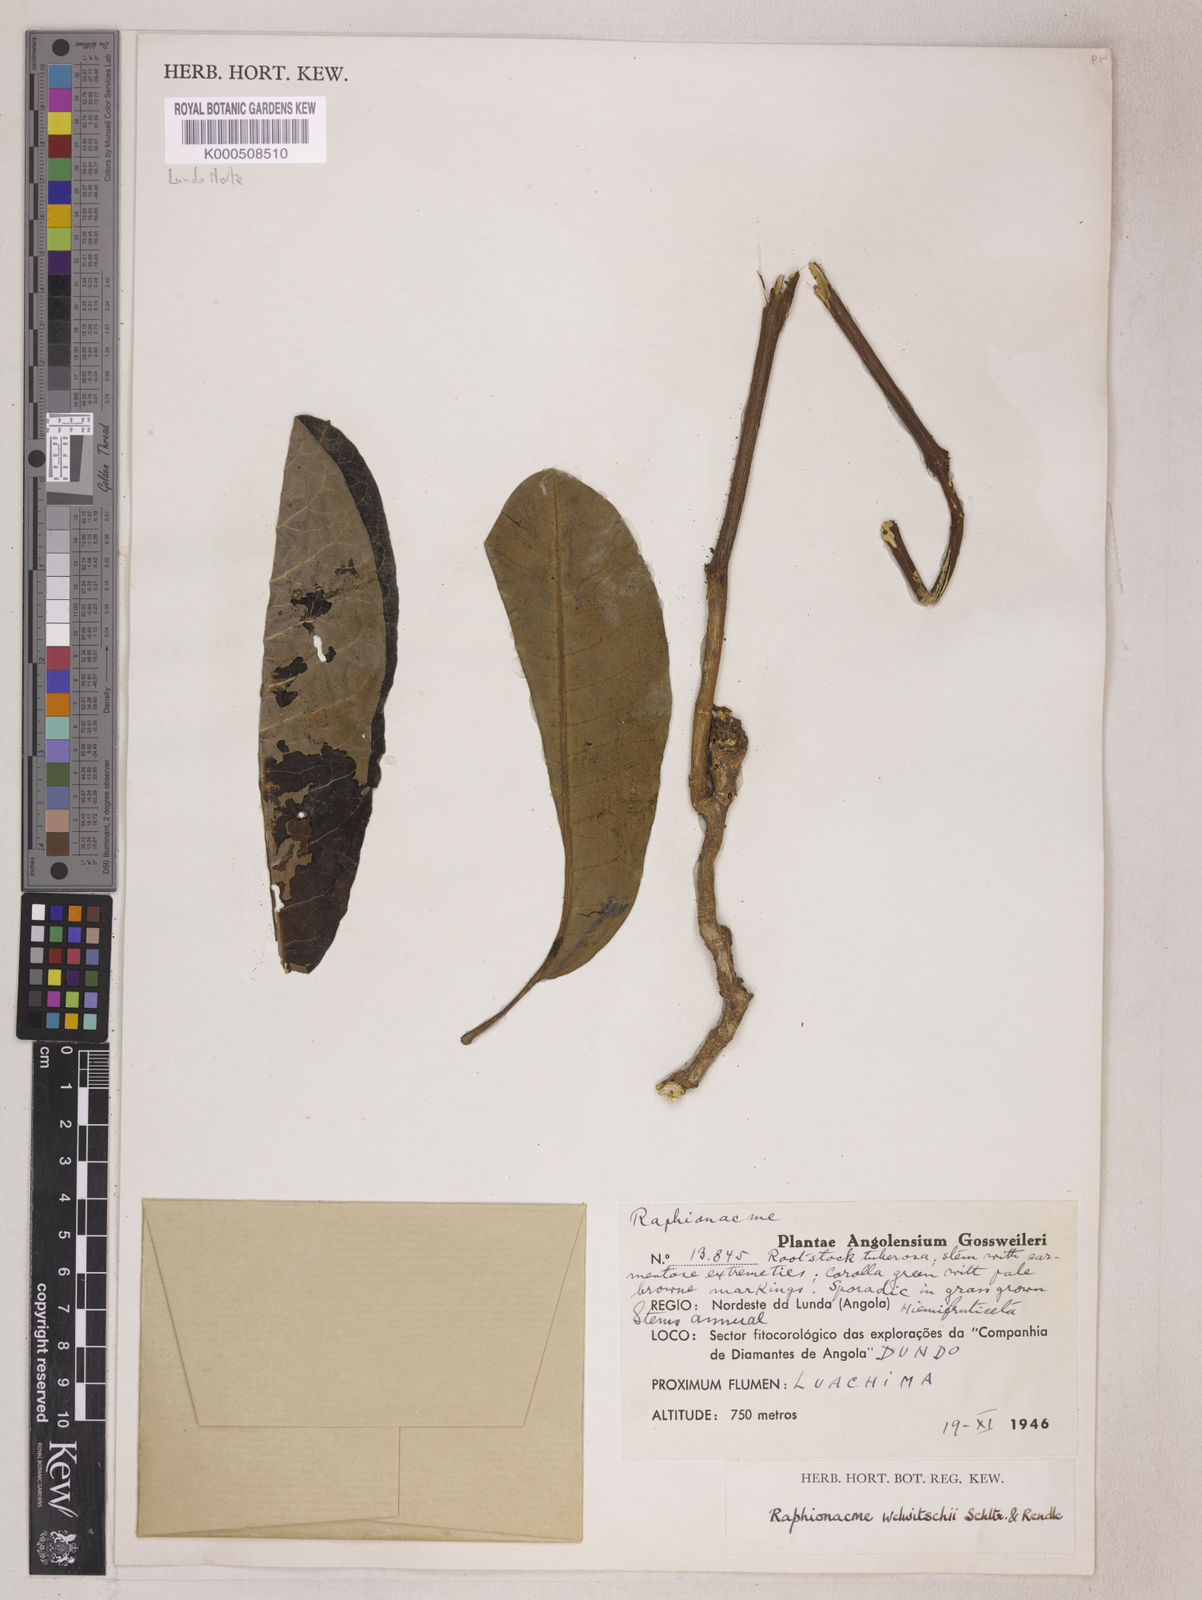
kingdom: Plantae
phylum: Tracheophyta
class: Magnoliopsida
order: Gentianales
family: Apocynaceae
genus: Raphionacme
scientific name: Raphionacme welwitschii
